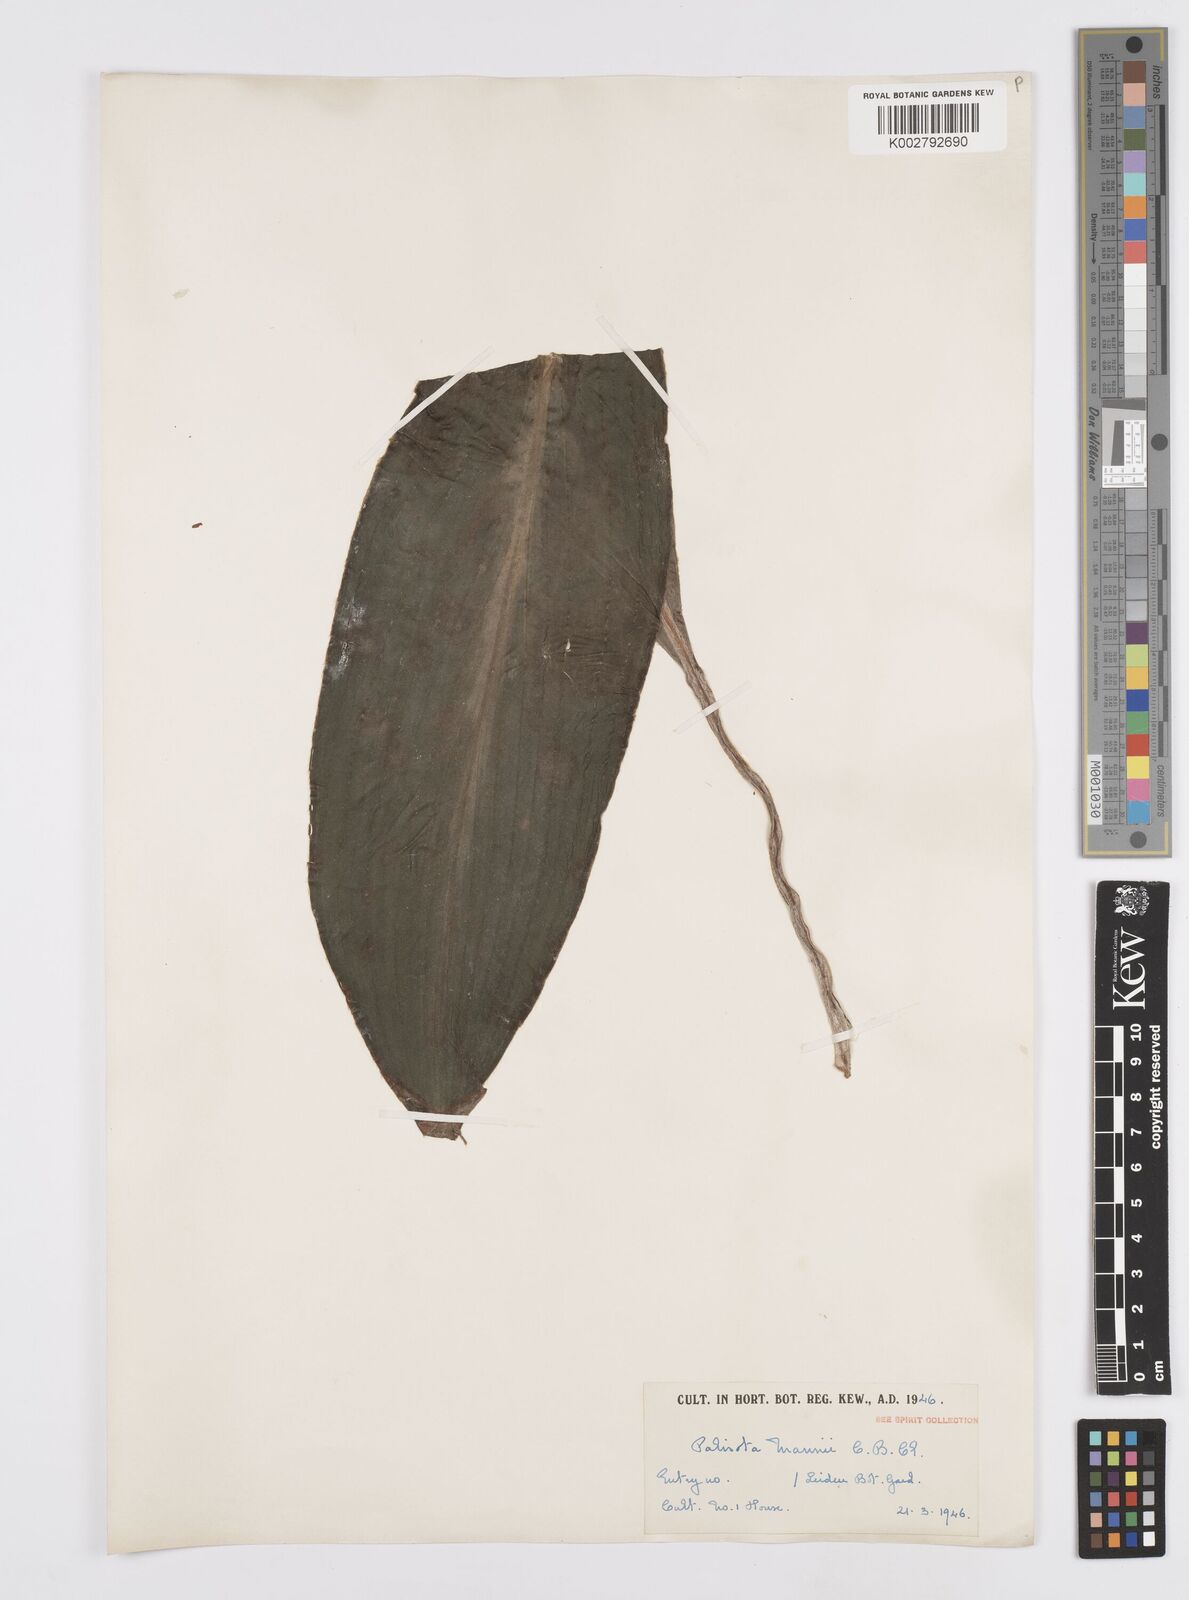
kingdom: Plantae
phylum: Tracheophyta
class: Liliopsida
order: Commelinales
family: Commelinaceae
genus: Palisota
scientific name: Palisota mannii
